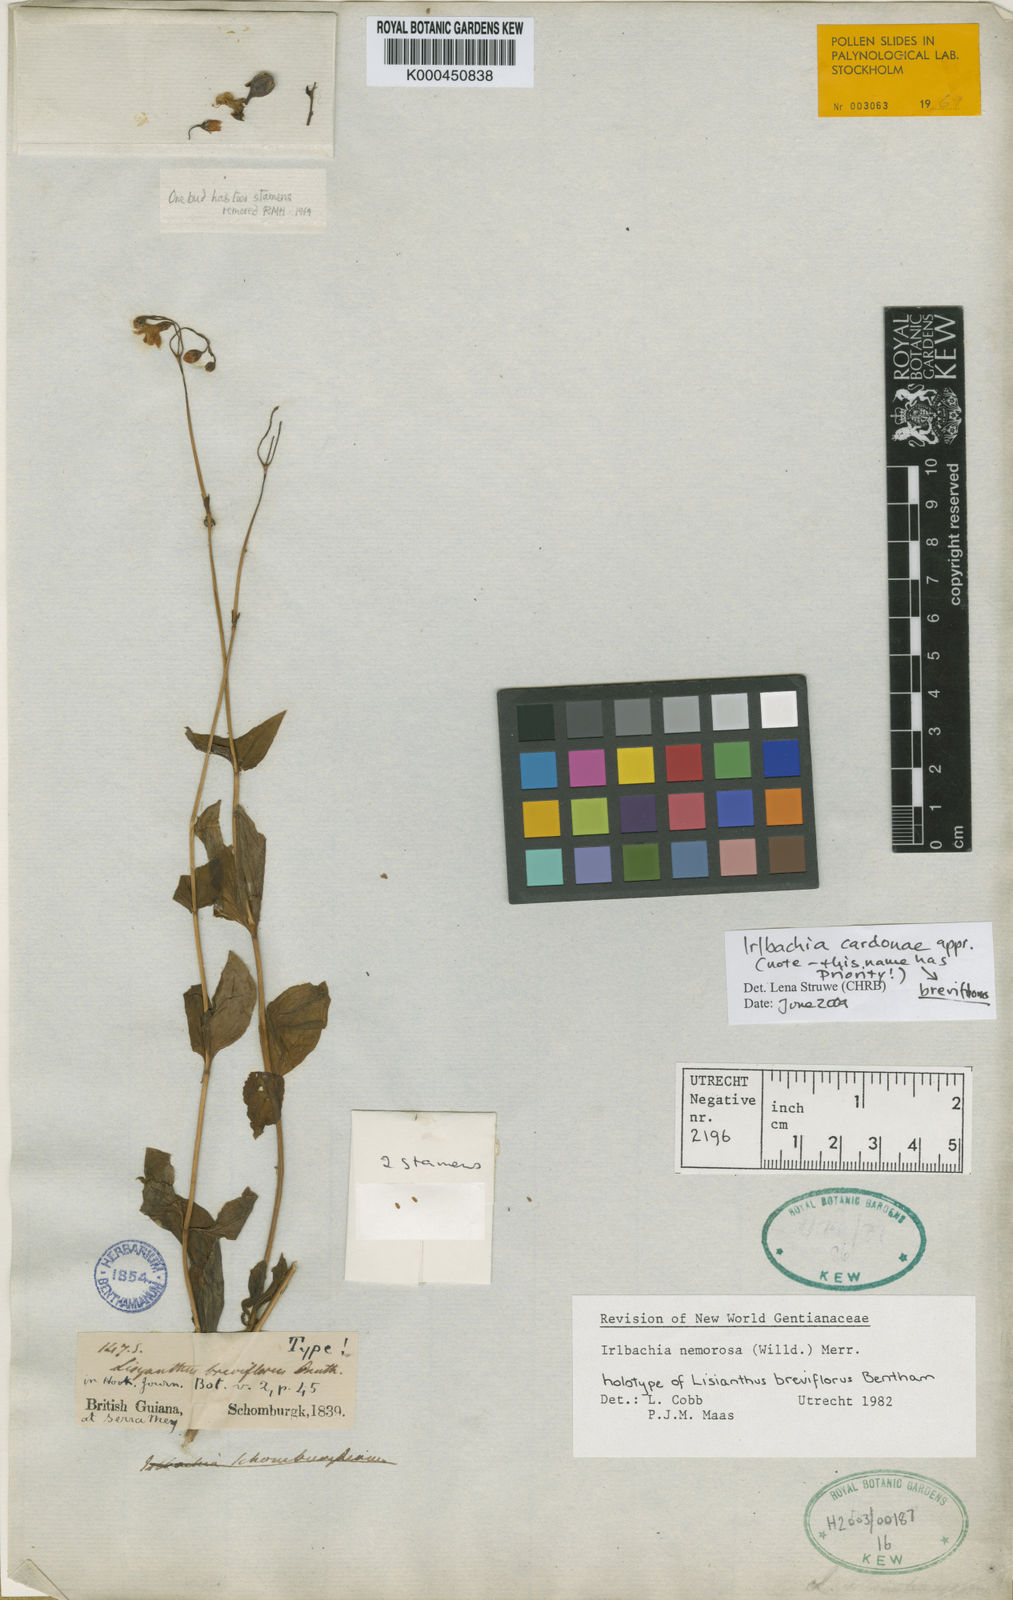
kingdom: Plantae
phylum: Tracheophyta
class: Magnoliopsida
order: Gentianales
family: Gentianaceae
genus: Irlbachia
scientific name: Irlbachia breviflora
